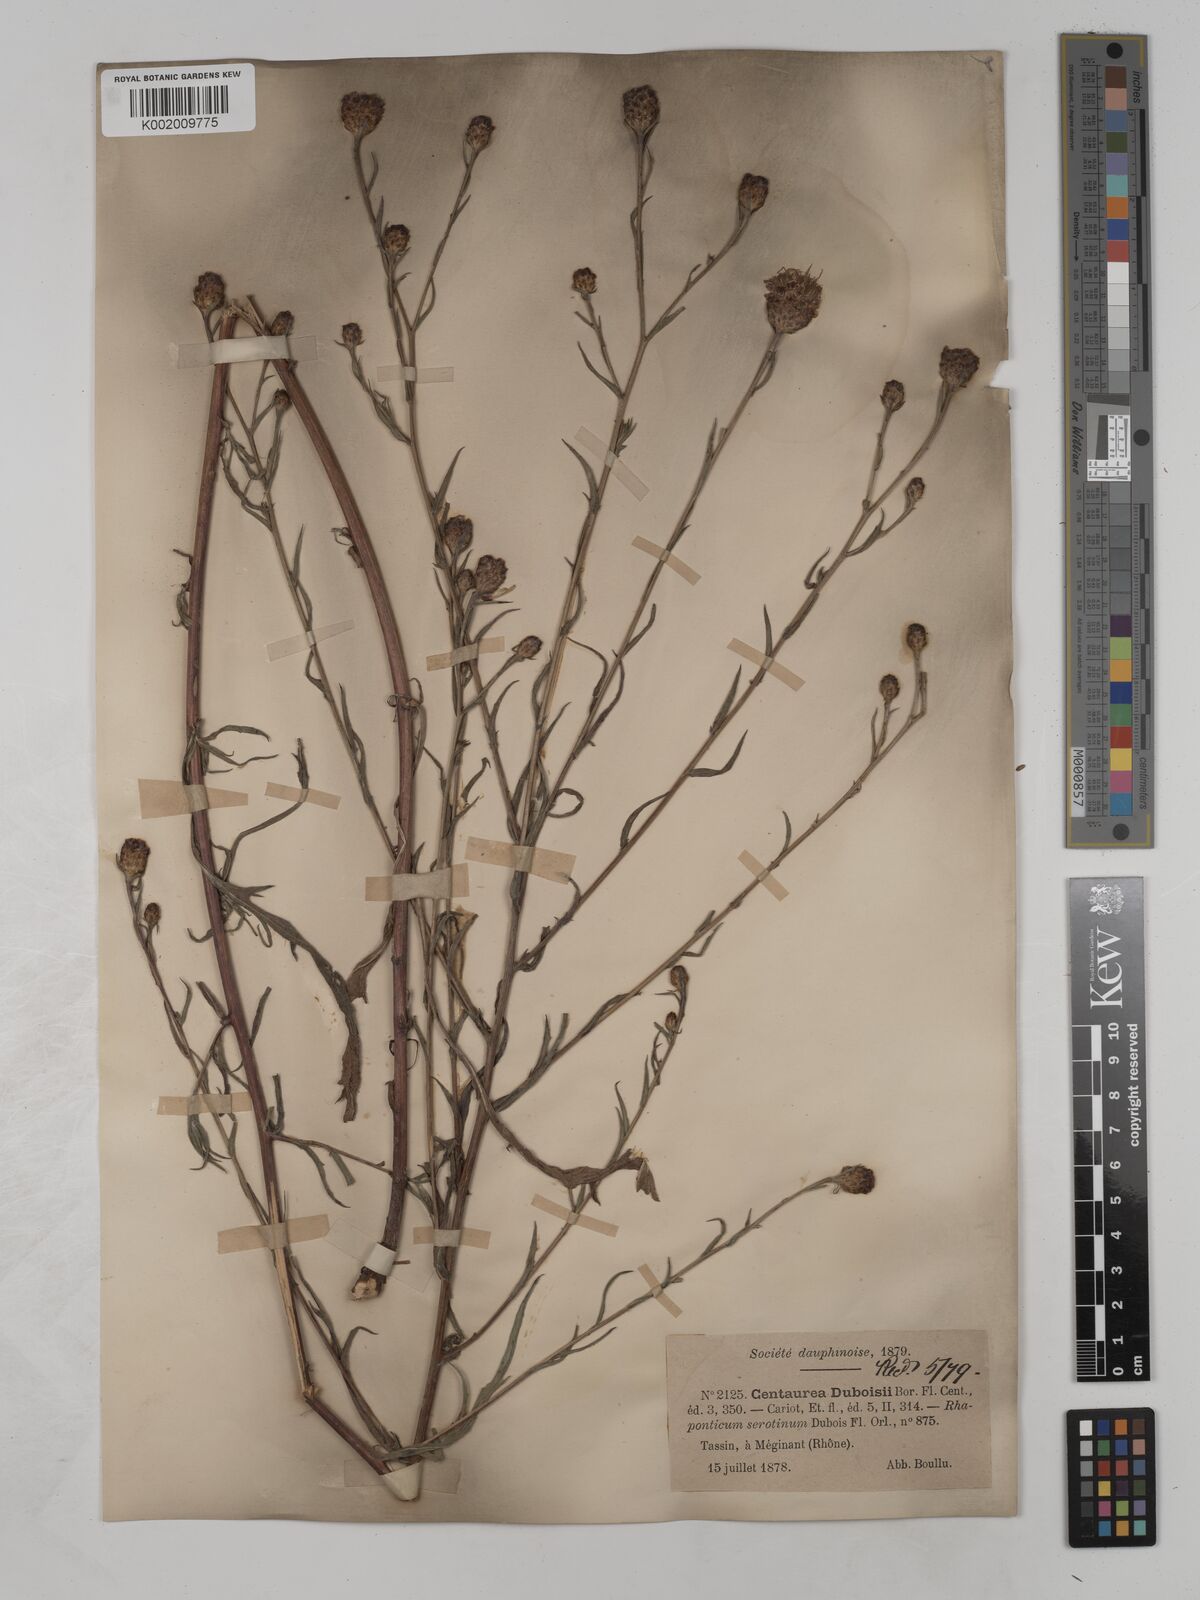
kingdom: Plantae
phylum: Tracheophyta
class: Magnoliopsida
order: Asterales
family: Asteraceae
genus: Centaurea
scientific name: Centaurea timbalii
